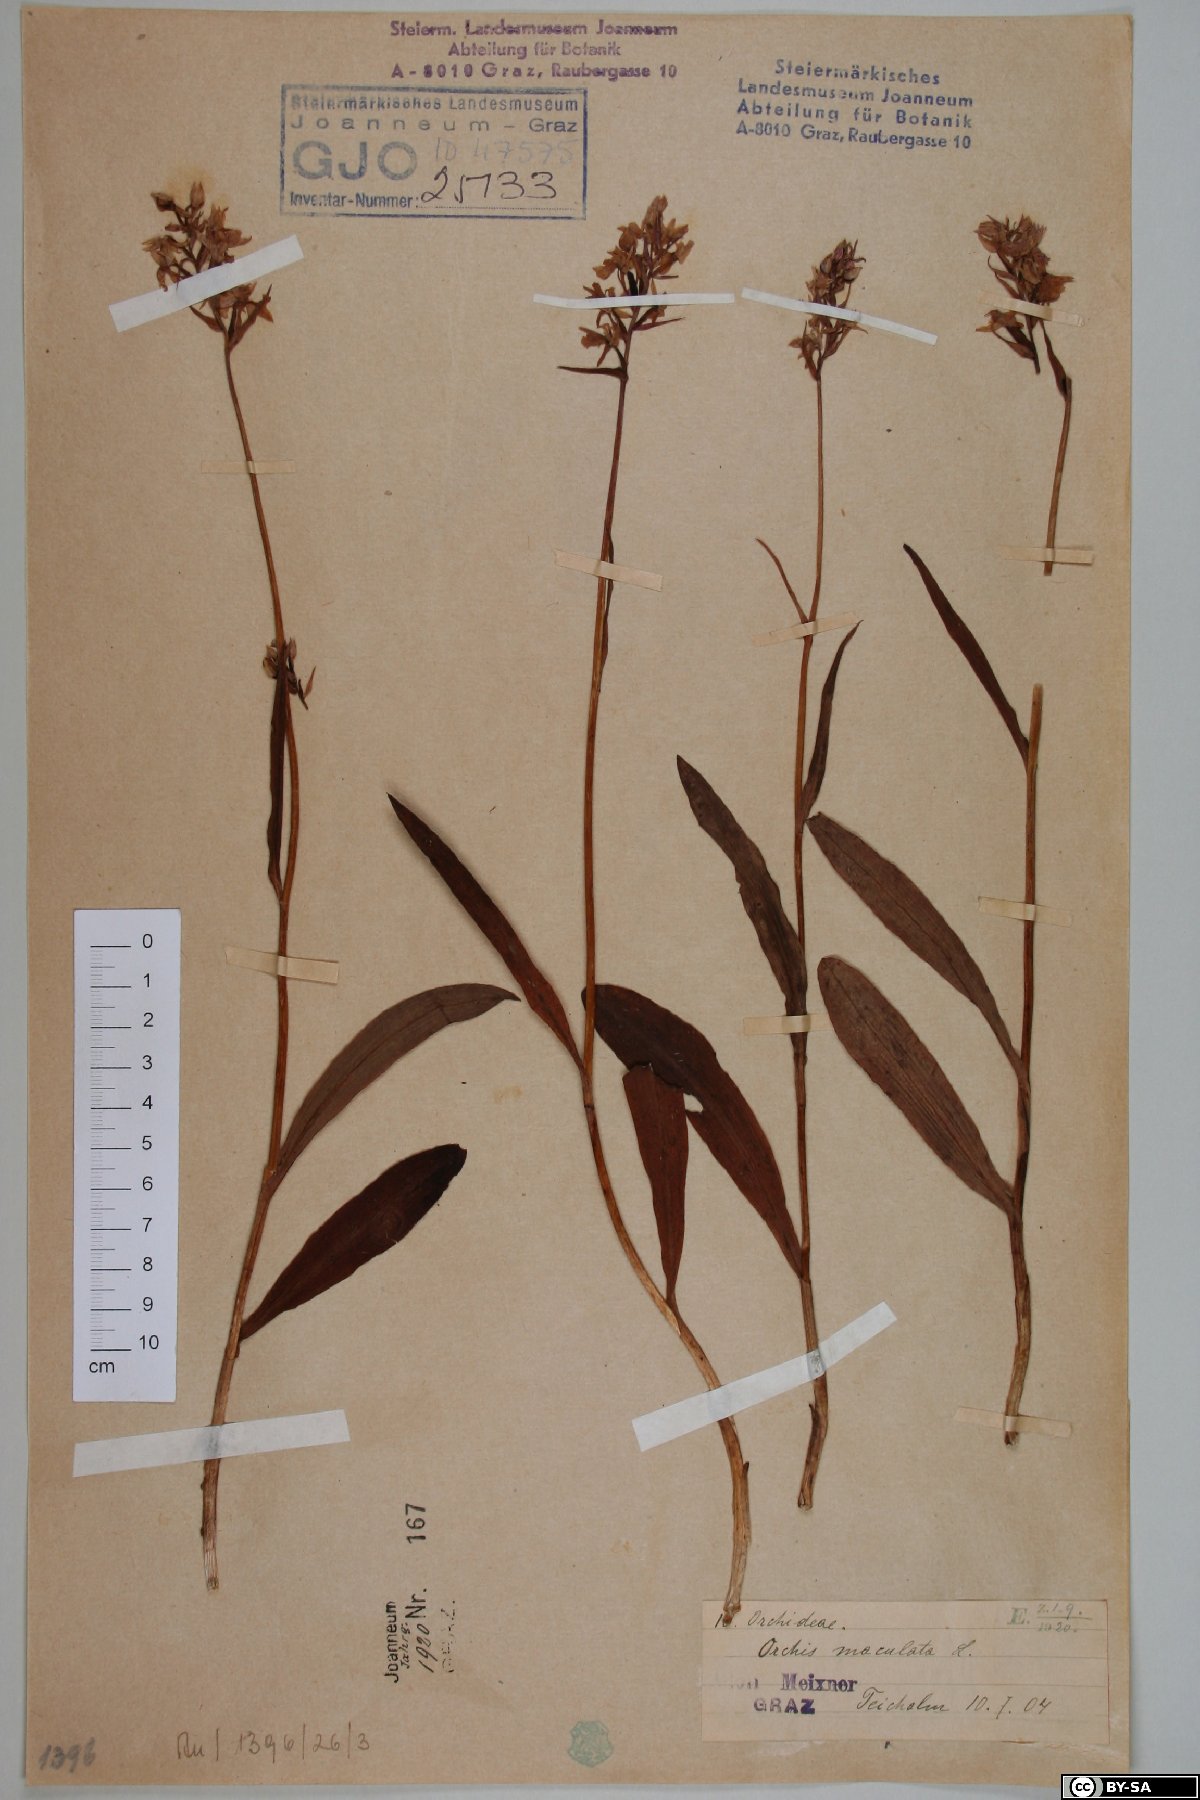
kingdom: Plantae
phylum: Tracheophyta
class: Liliopsida
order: Asparagales
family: Orchidaceae
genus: Dactylorhiza
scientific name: Dactylorhiza maculata
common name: Heath spotted-orchid
